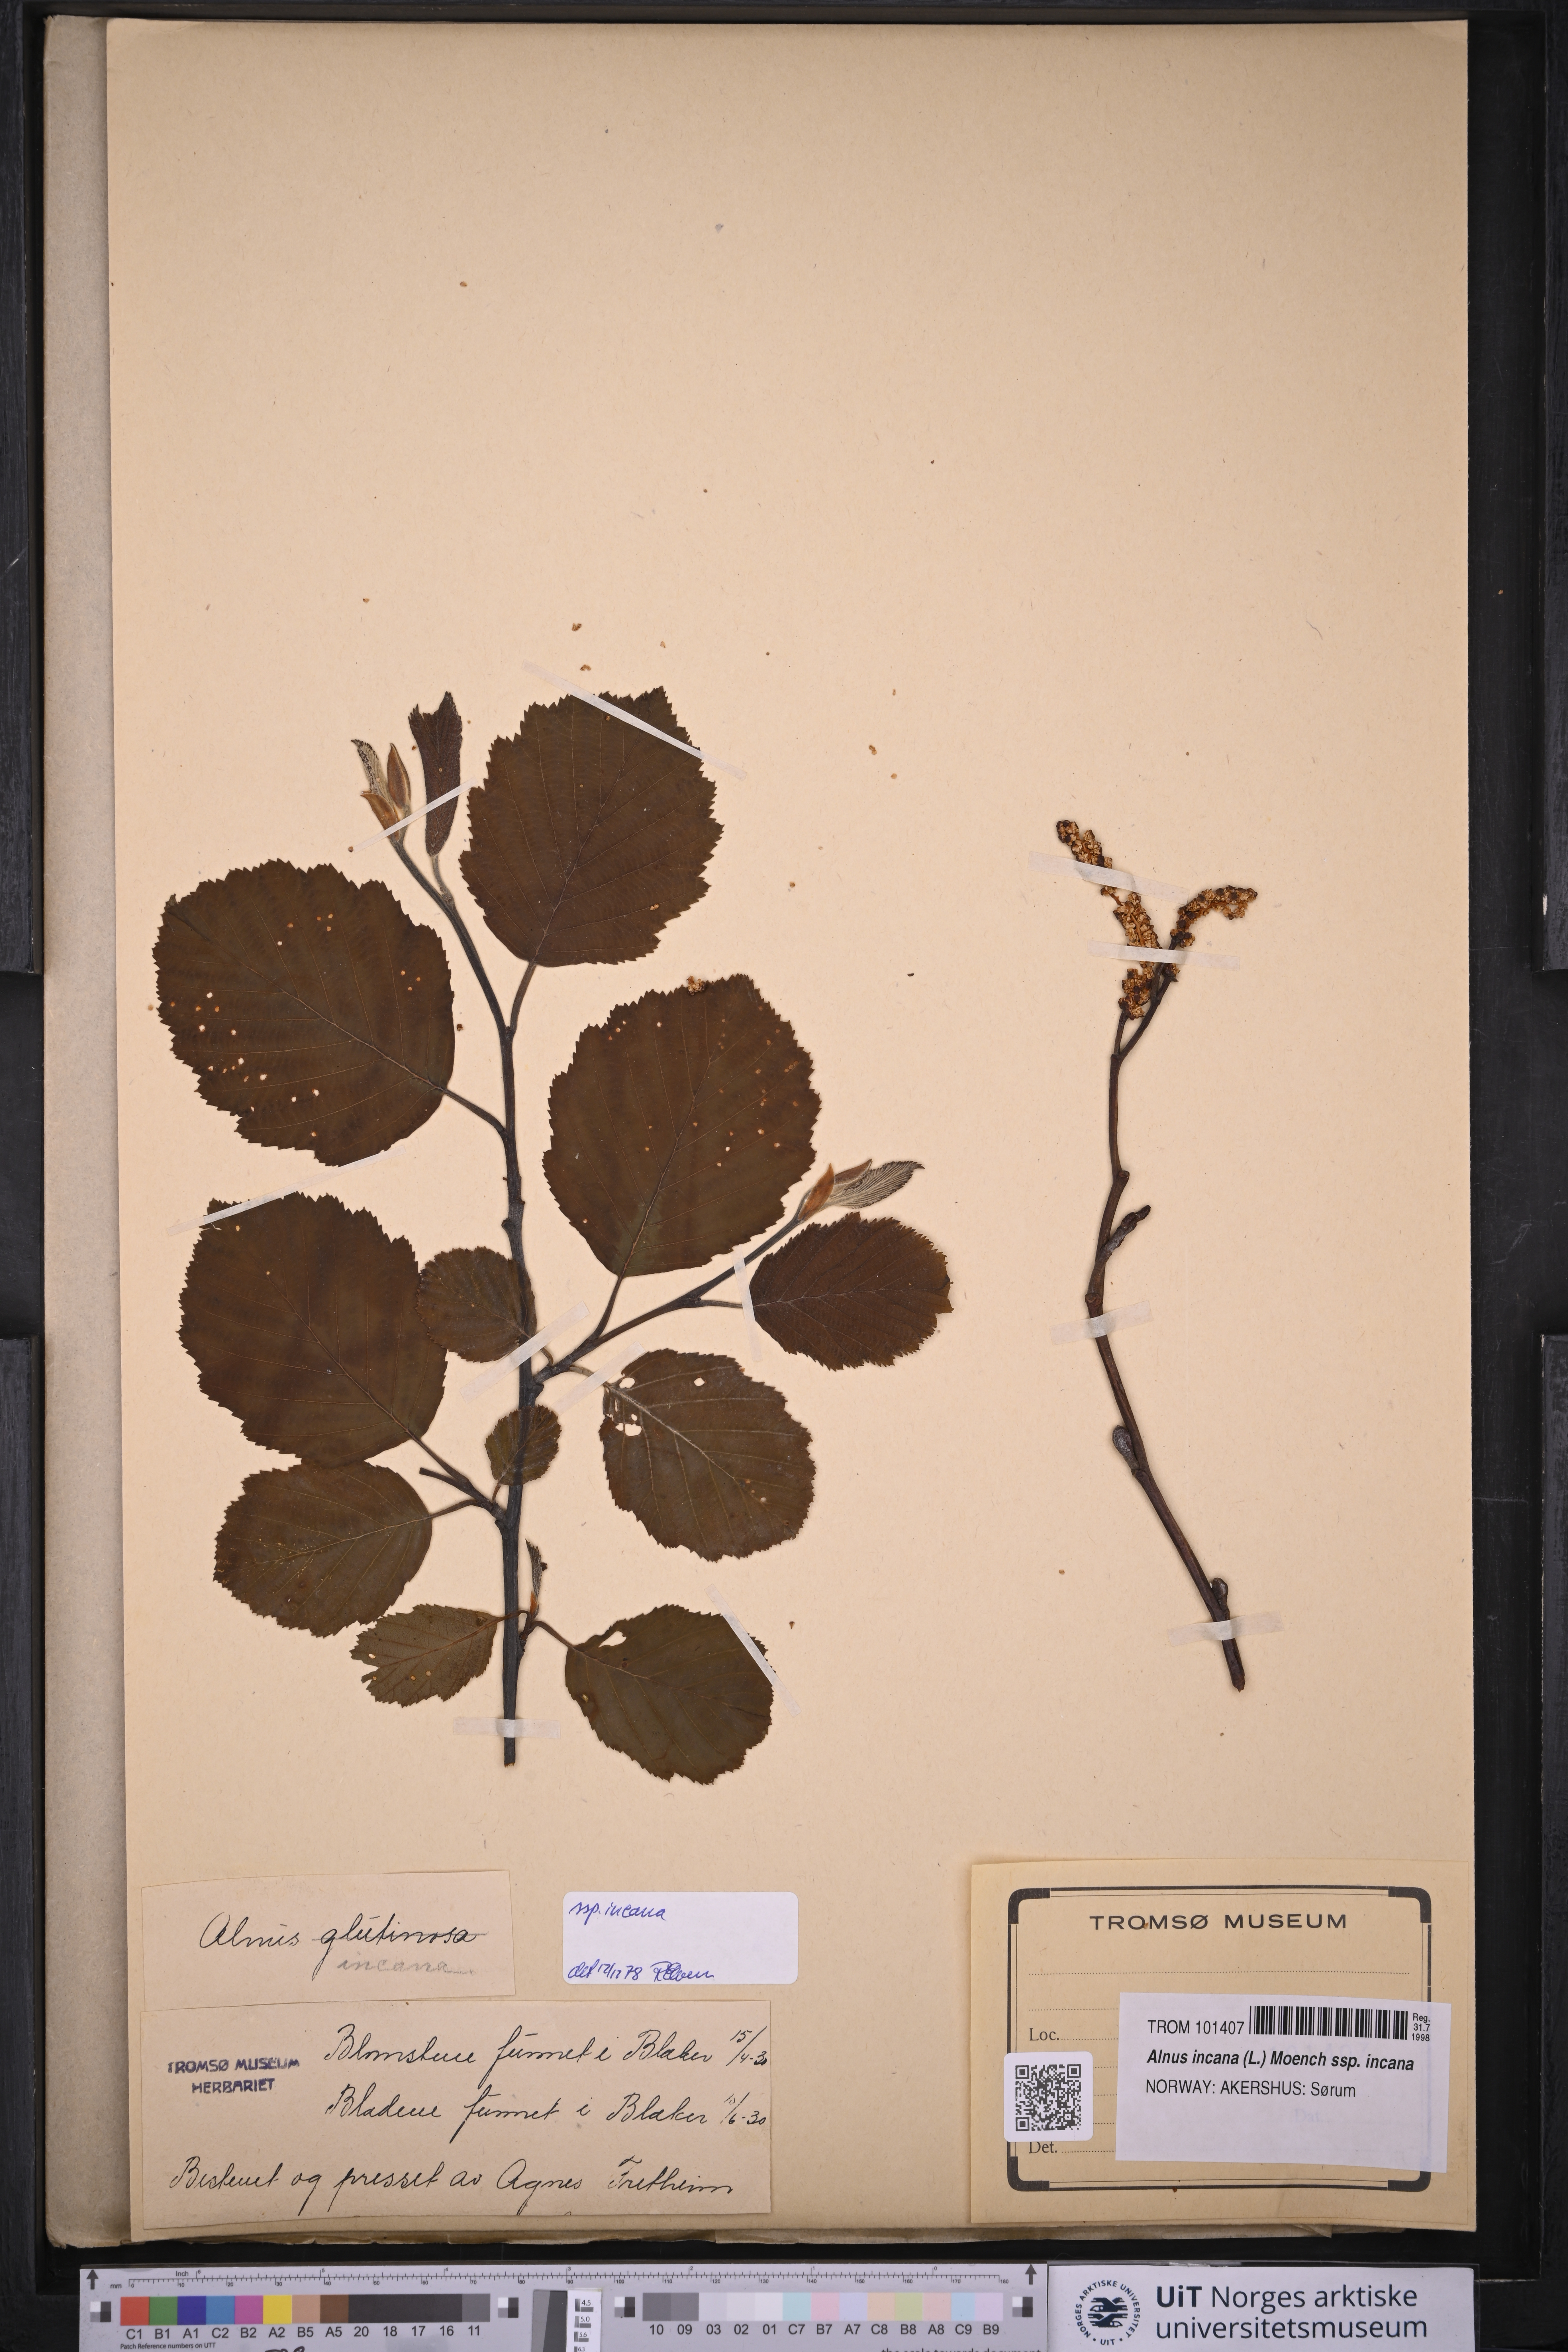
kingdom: Plantae
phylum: Tracheophyta
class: Magnoliopsida
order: Fagales
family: Betulaceae
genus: Alnus
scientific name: Alnus incana
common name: Grey alder
